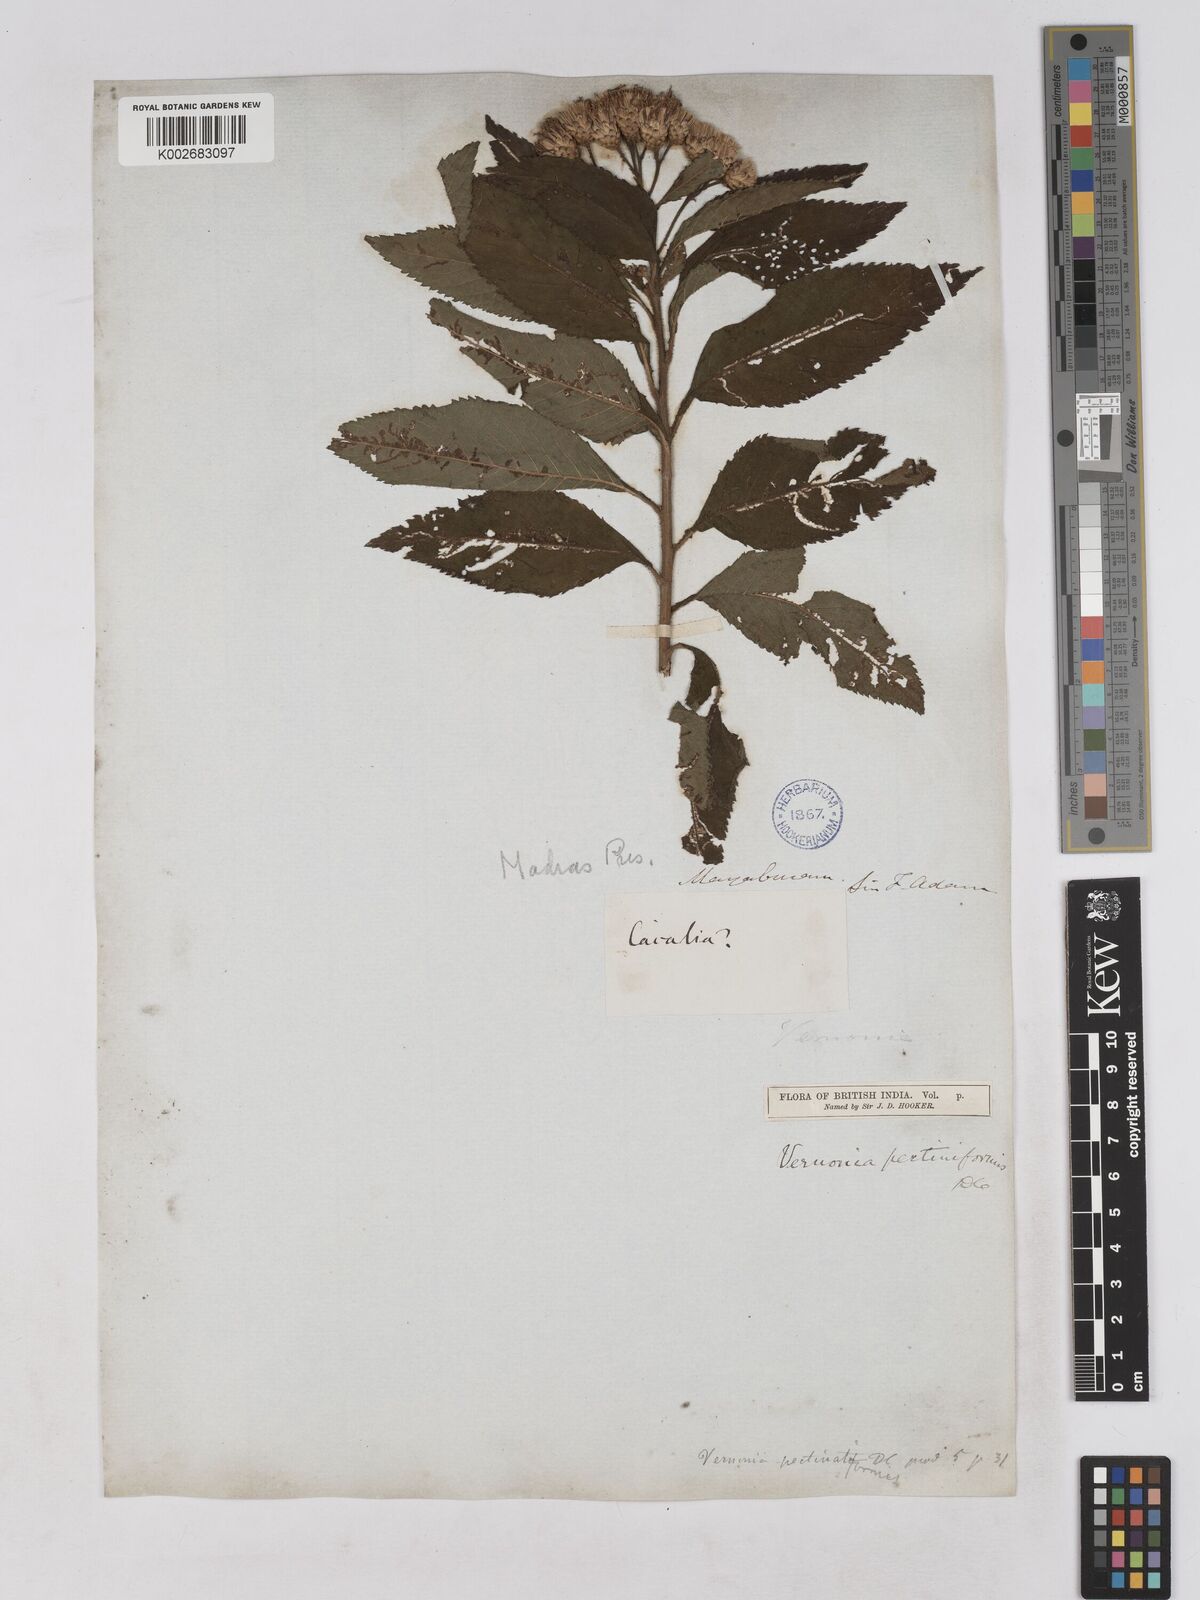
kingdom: Plantae
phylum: Tracheophyta
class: Magnoliopsida
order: Asterales
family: Asteraceae
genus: Gymnanthemum
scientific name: Gymnanthemum pectiniforme
